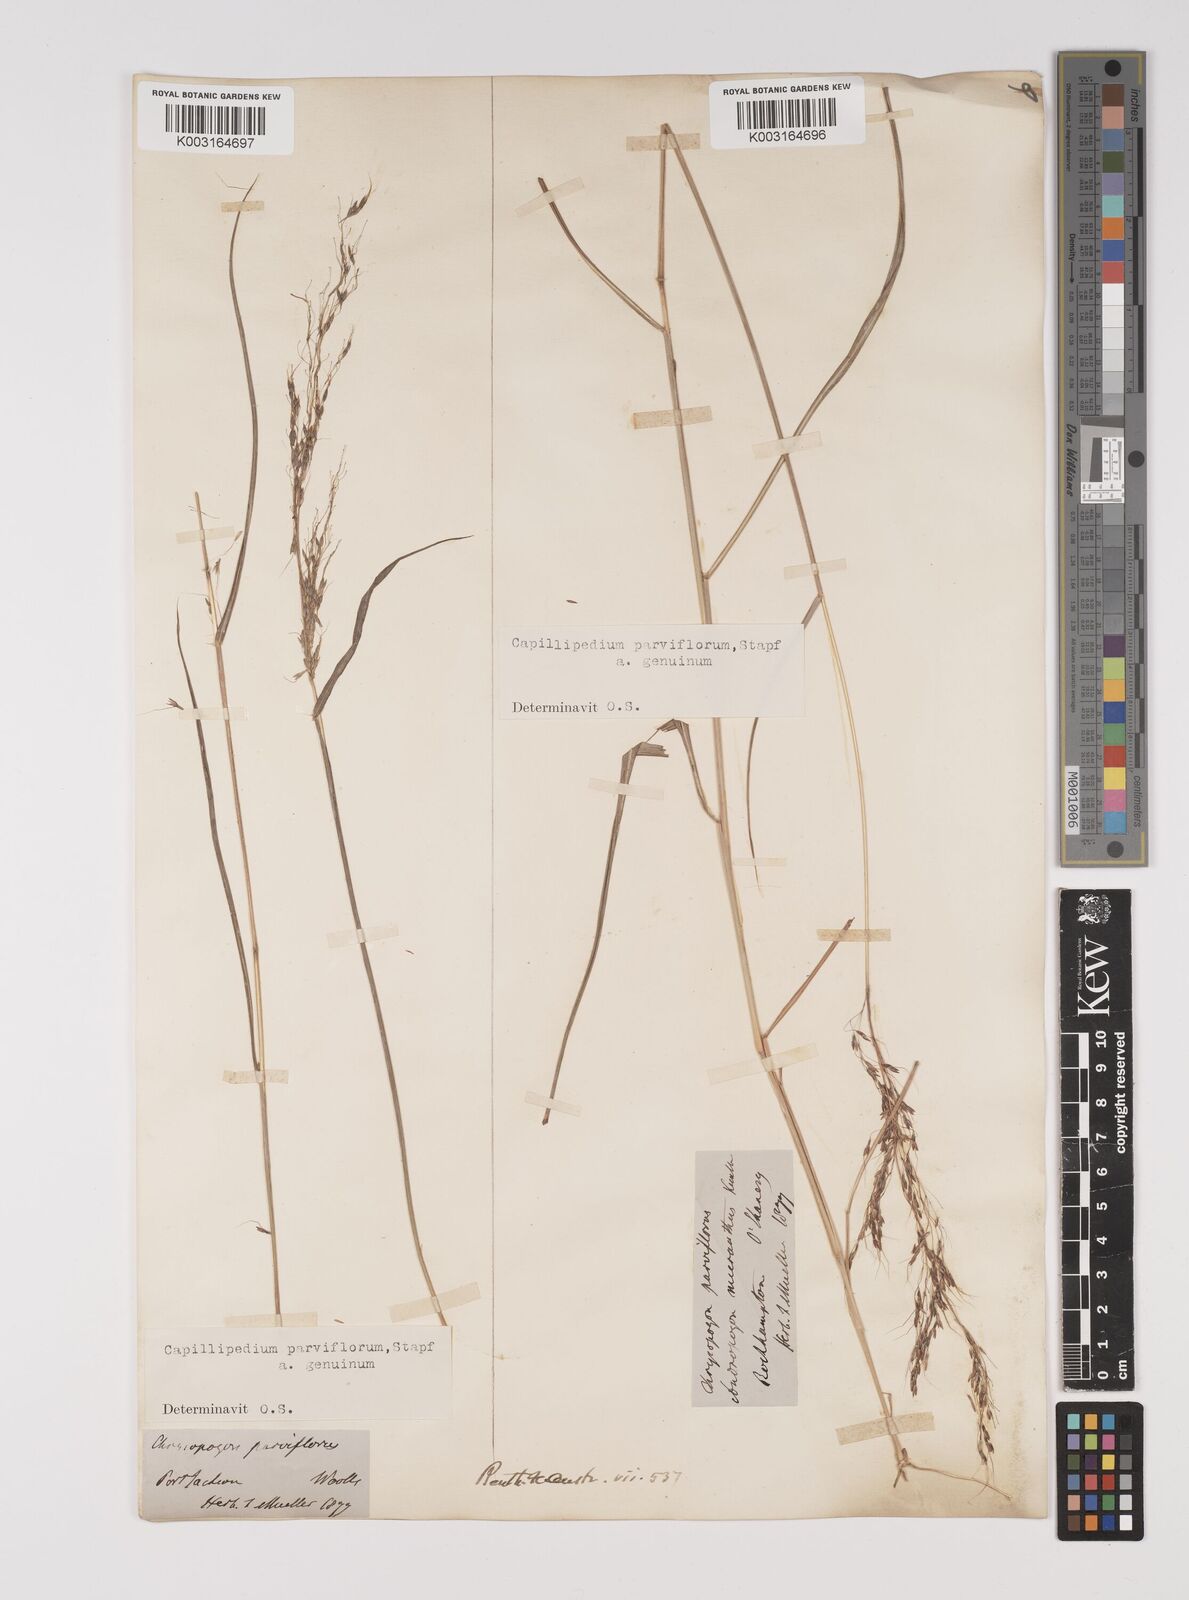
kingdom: Plantae
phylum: Tracheophyta
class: Liliopsida
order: Poales
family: Poaceae
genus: Capillipedium
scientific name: Capillipedium parviflorum
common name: Golden-beard
